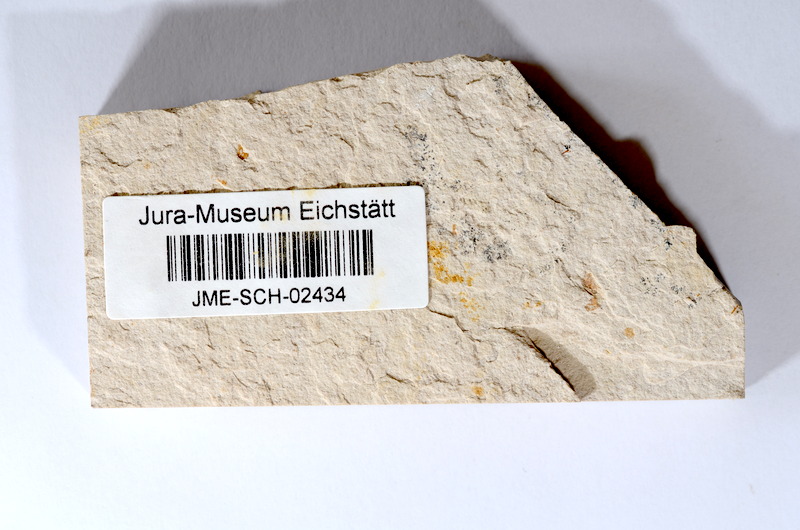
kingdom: Animalia
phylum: Chordata
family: Ascalaboidae
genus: Tharsis
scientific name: Tharsis dubius
